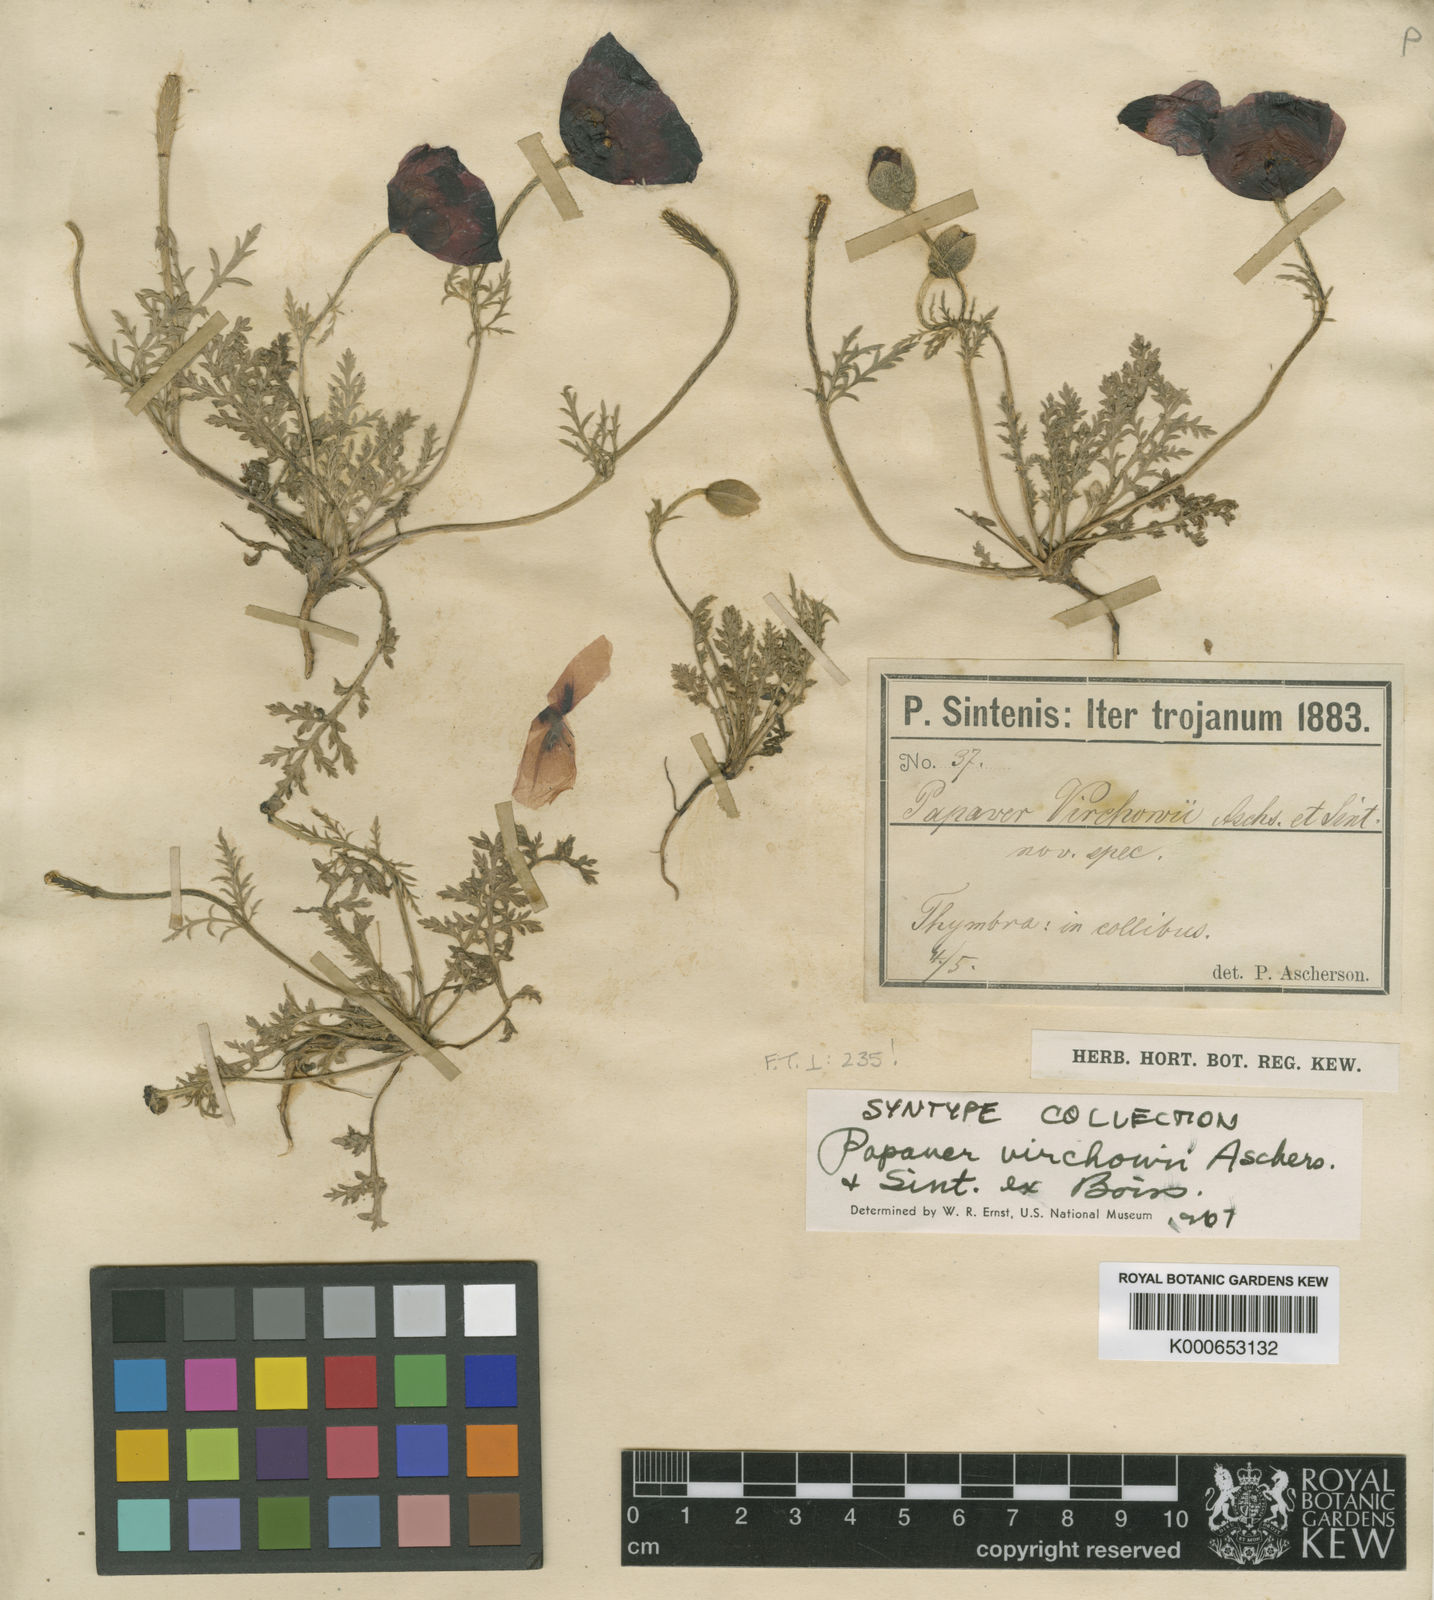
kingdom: Plantae
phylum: Tracheophyta
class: Magnoliopsida
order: Ranunculales
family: Papaveraceae
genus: Roemeria
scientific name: Roemeria virchowii
